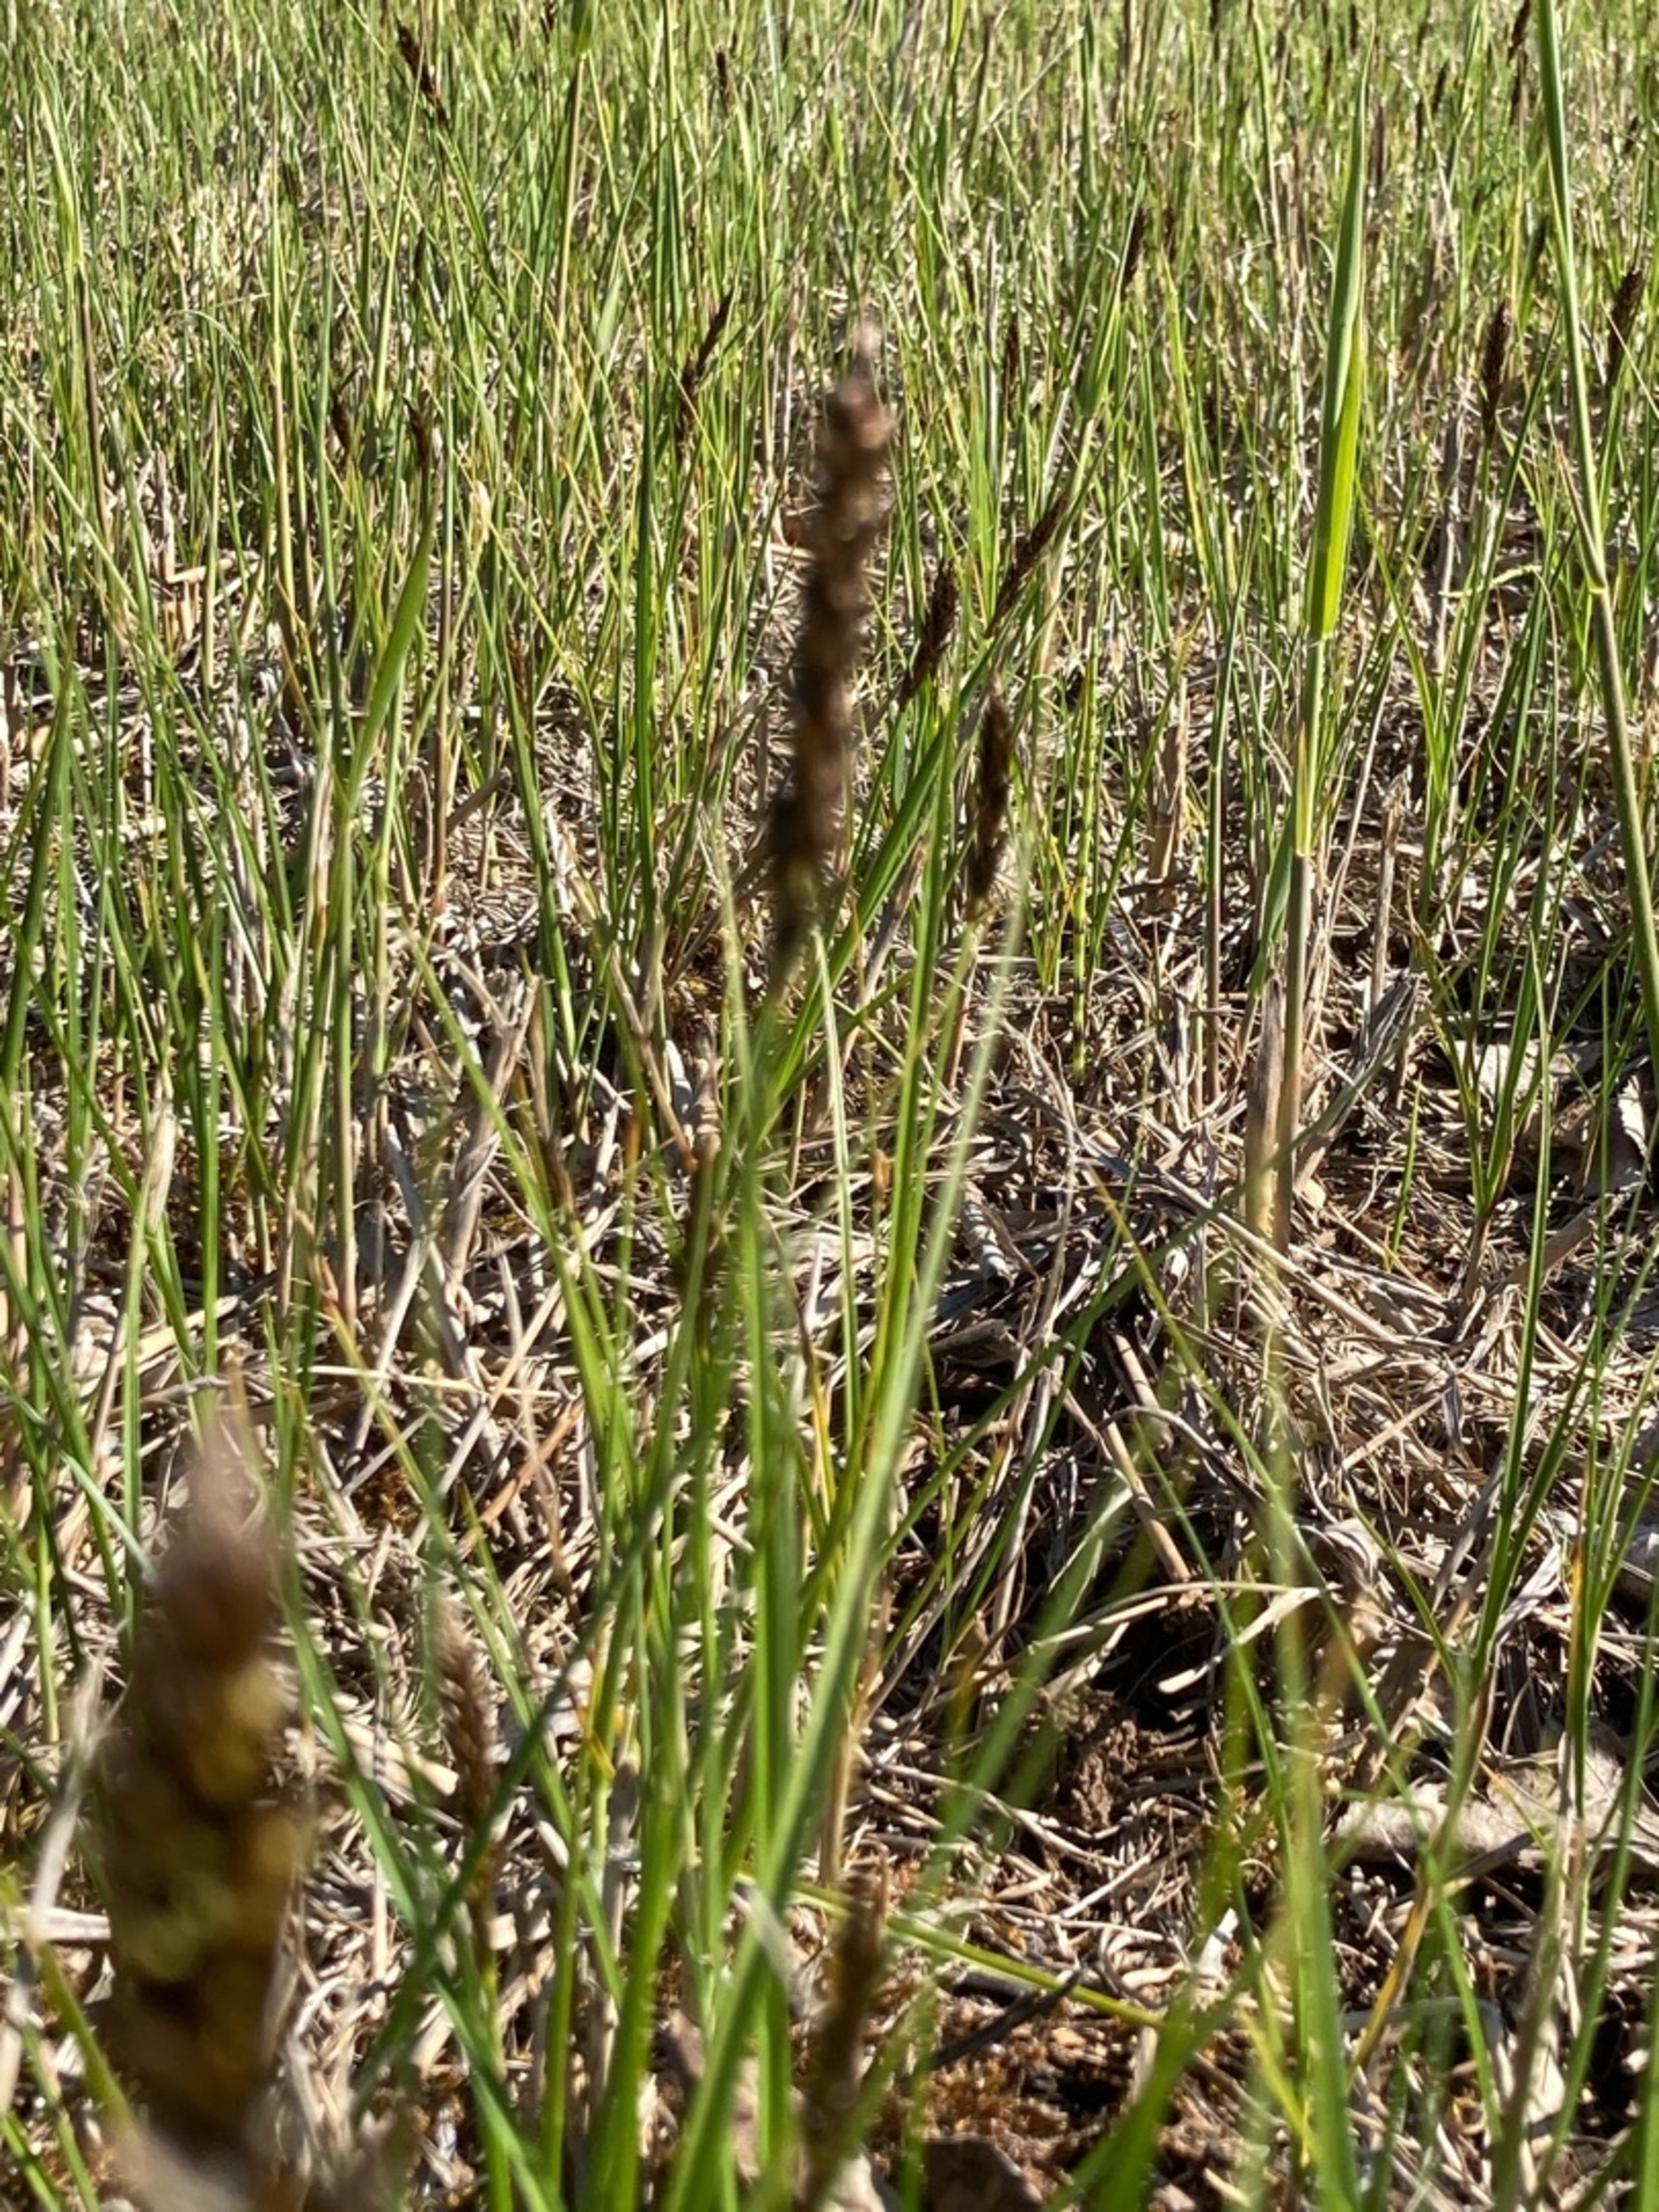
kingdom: Plantae
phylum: Tracheophyta
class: Liliopsida
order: Poales
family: Cyperaceae
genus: Carex
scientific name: Carex disticha
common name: Toradet star
